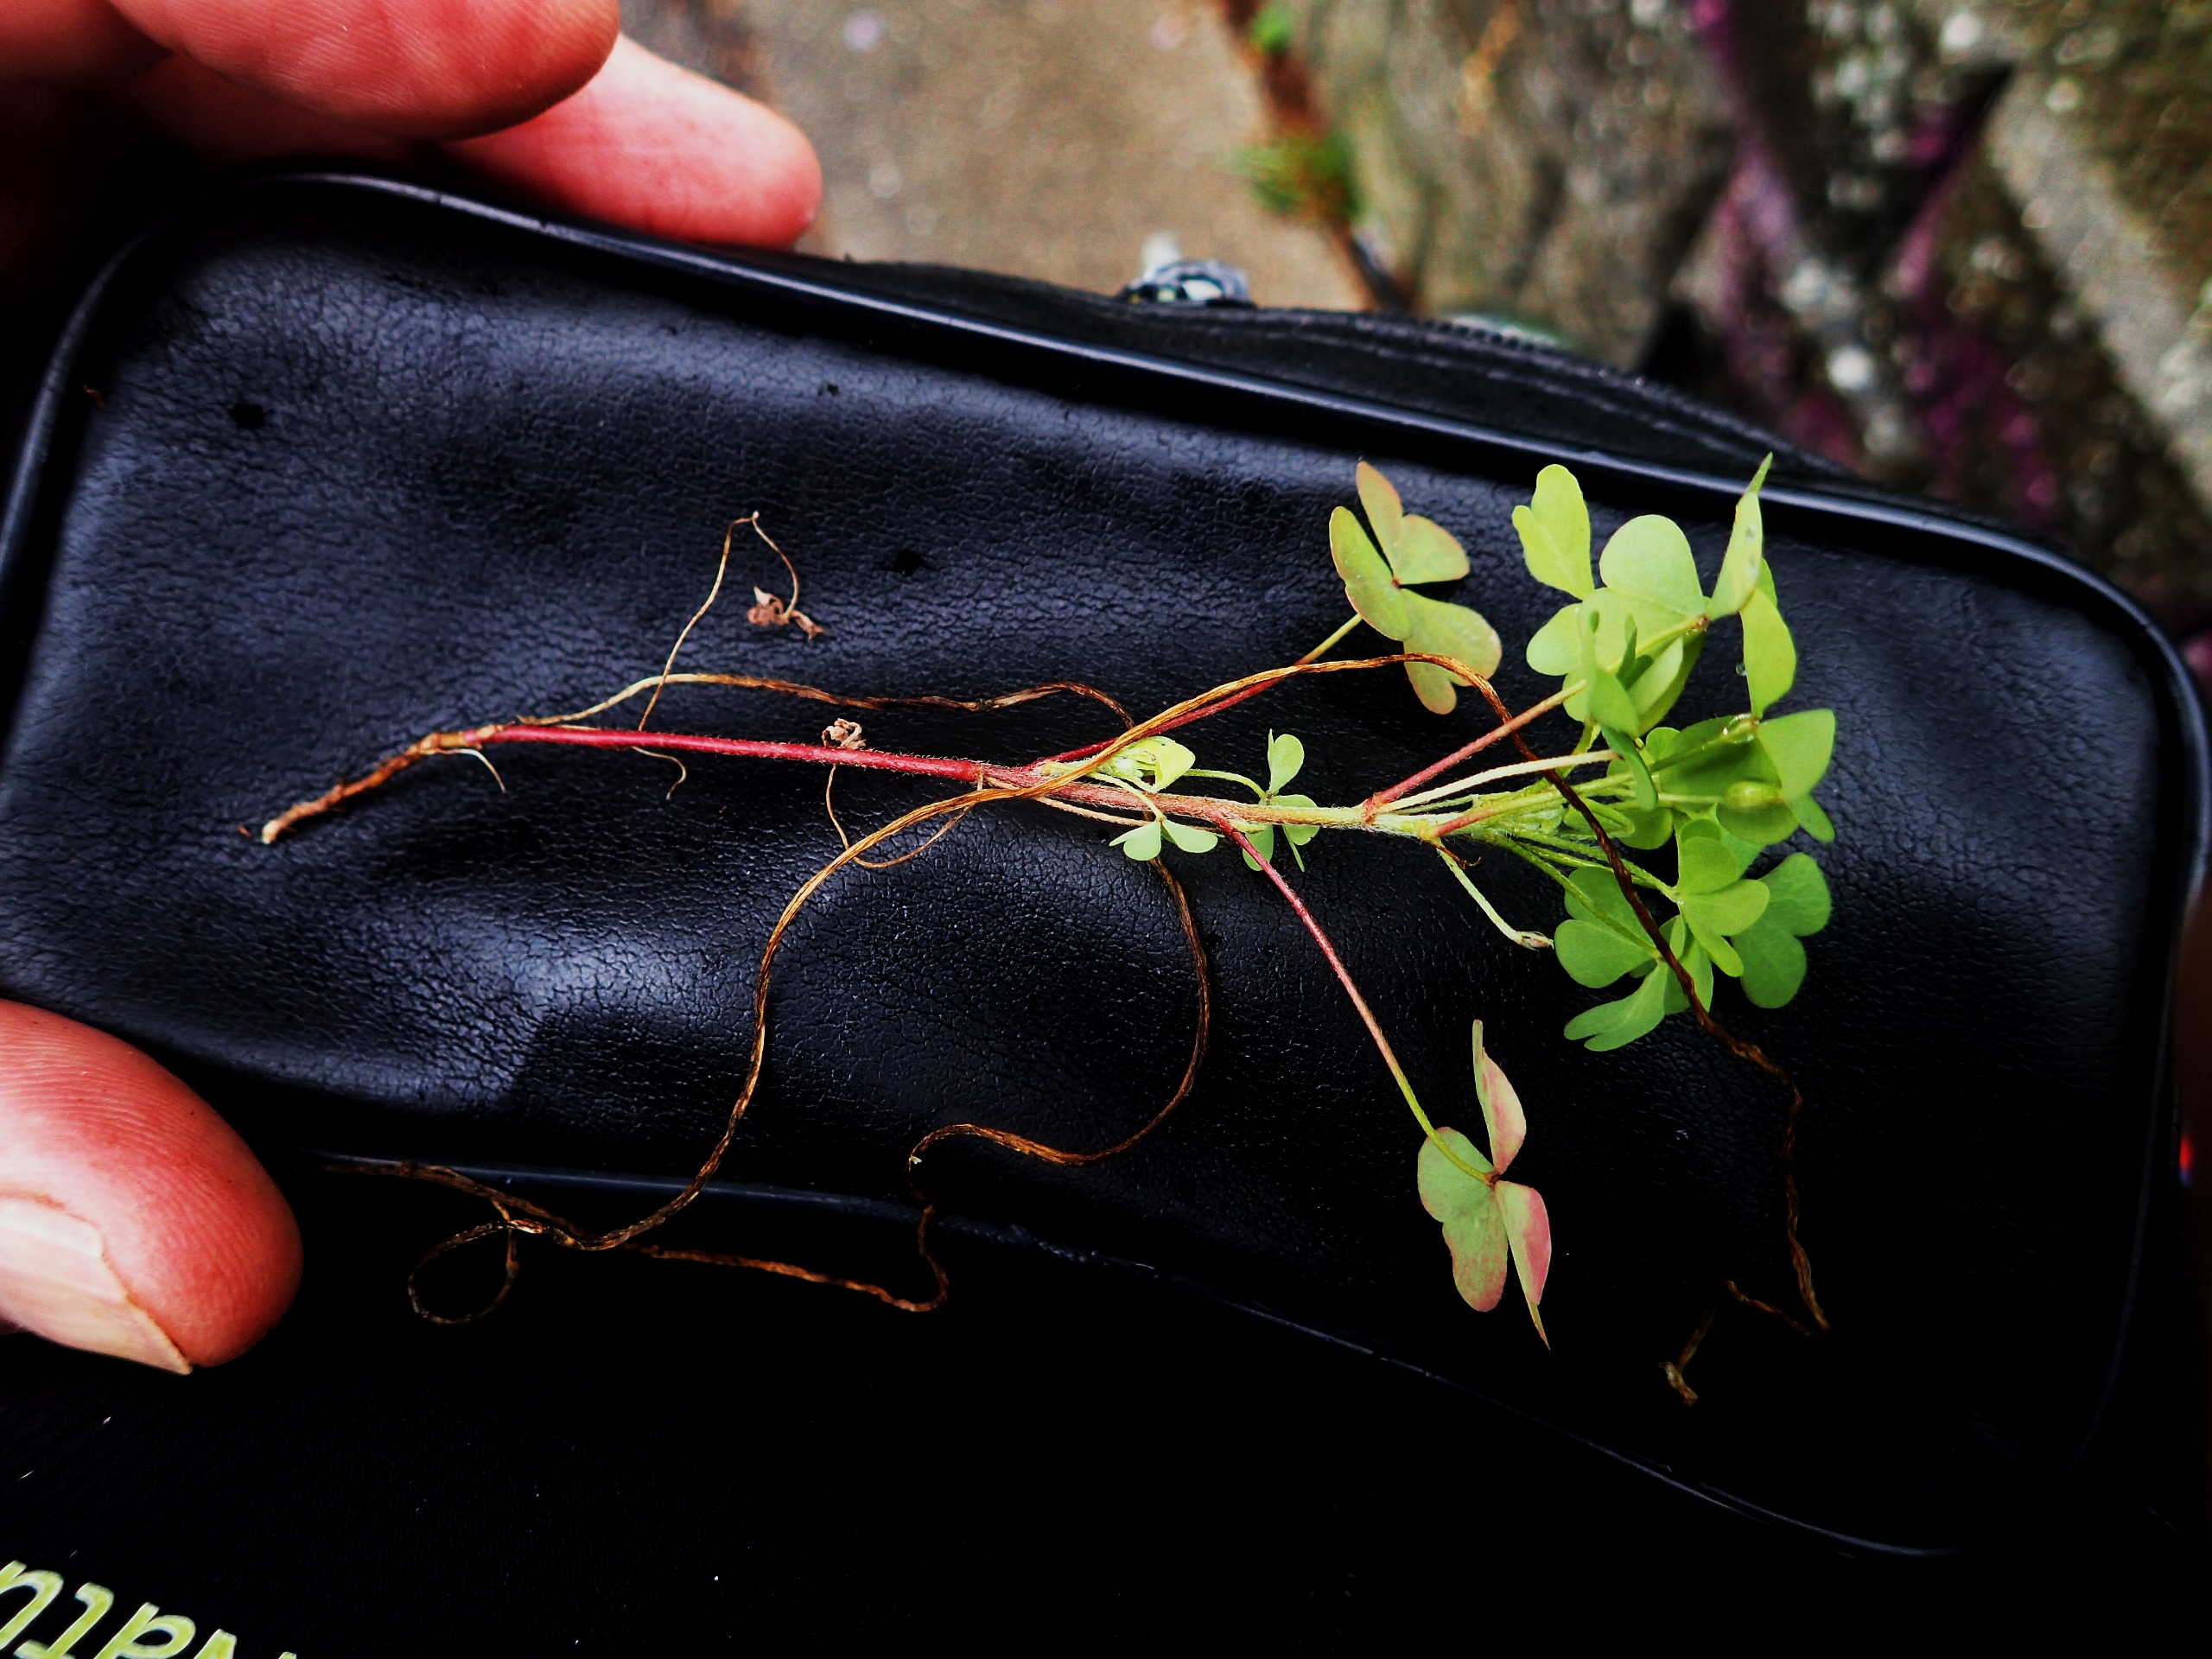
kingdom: Plantae
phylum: Tracheophyta
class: Magnoliopsida
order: Oxalidales
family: Oxalidaceae
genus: Oxalis
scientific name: Oxalis stricta
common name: Rank surkløver
